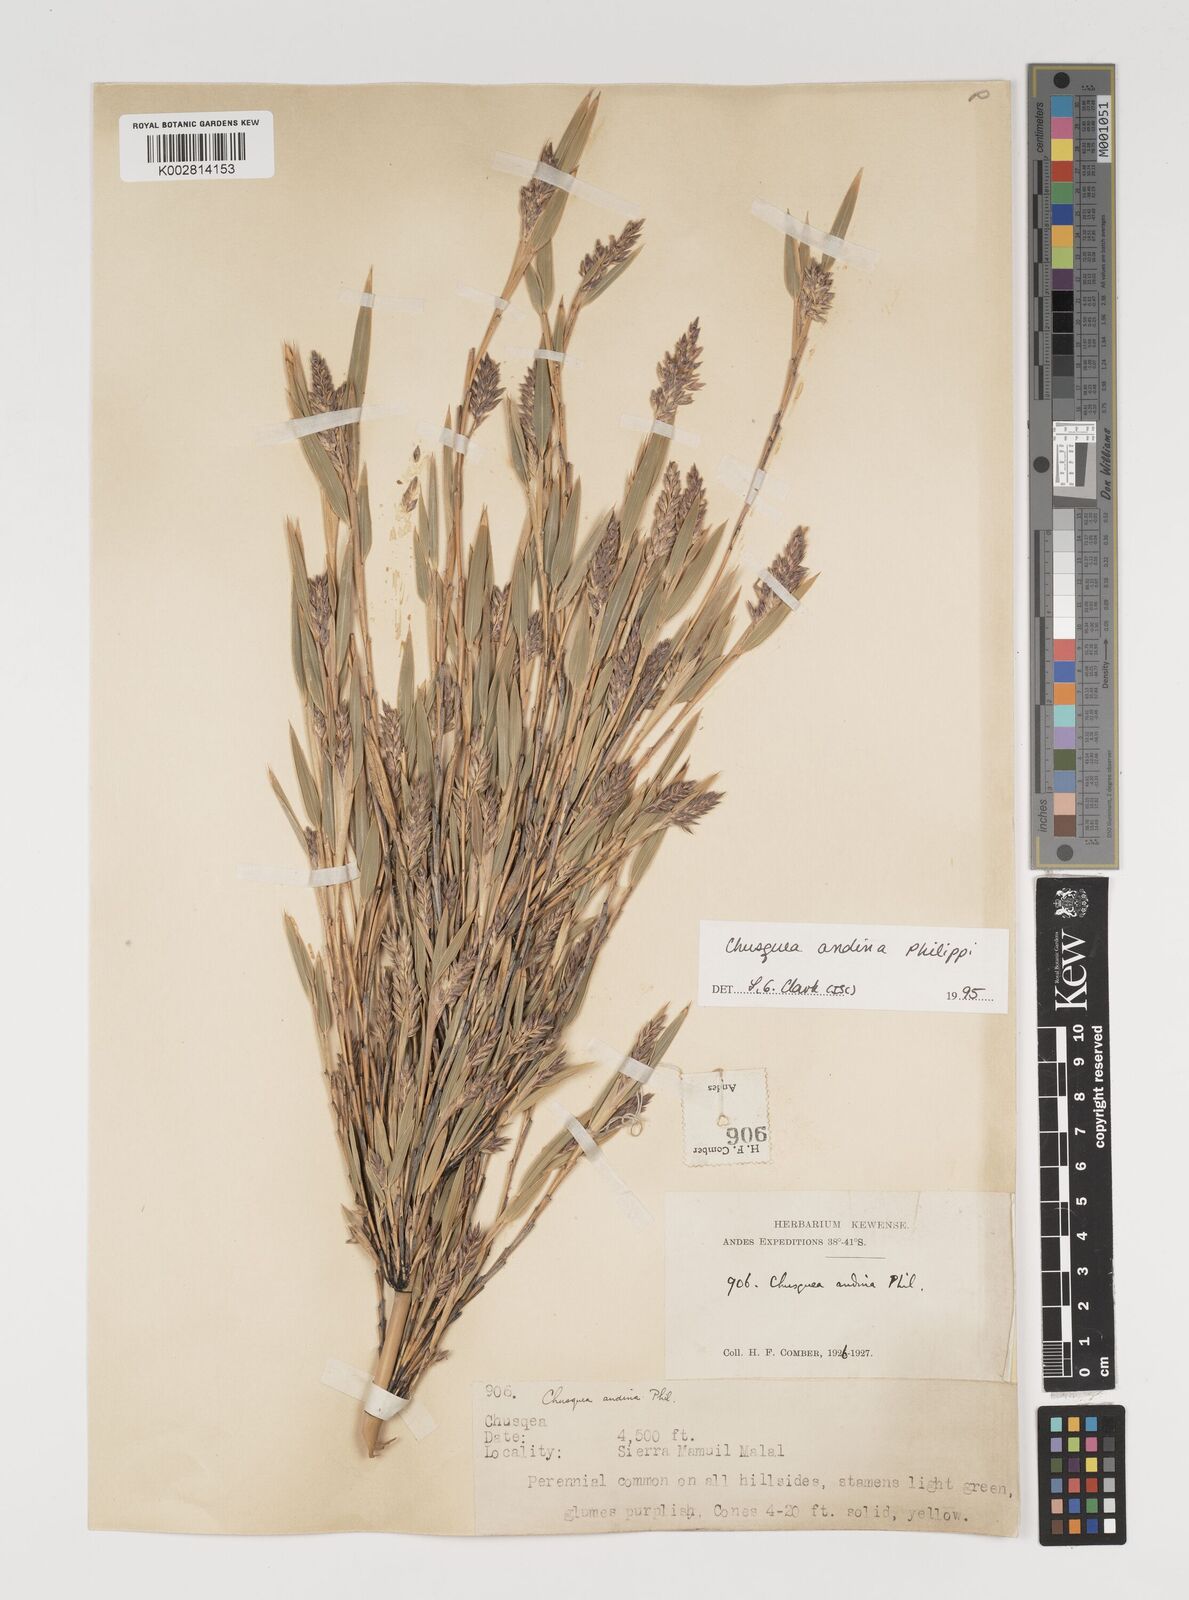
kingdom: Plantae
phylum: Tracheophyta
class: Liliopsida
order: Poales
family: Poaceae
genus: Chusquea
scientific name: Chusquea andina
